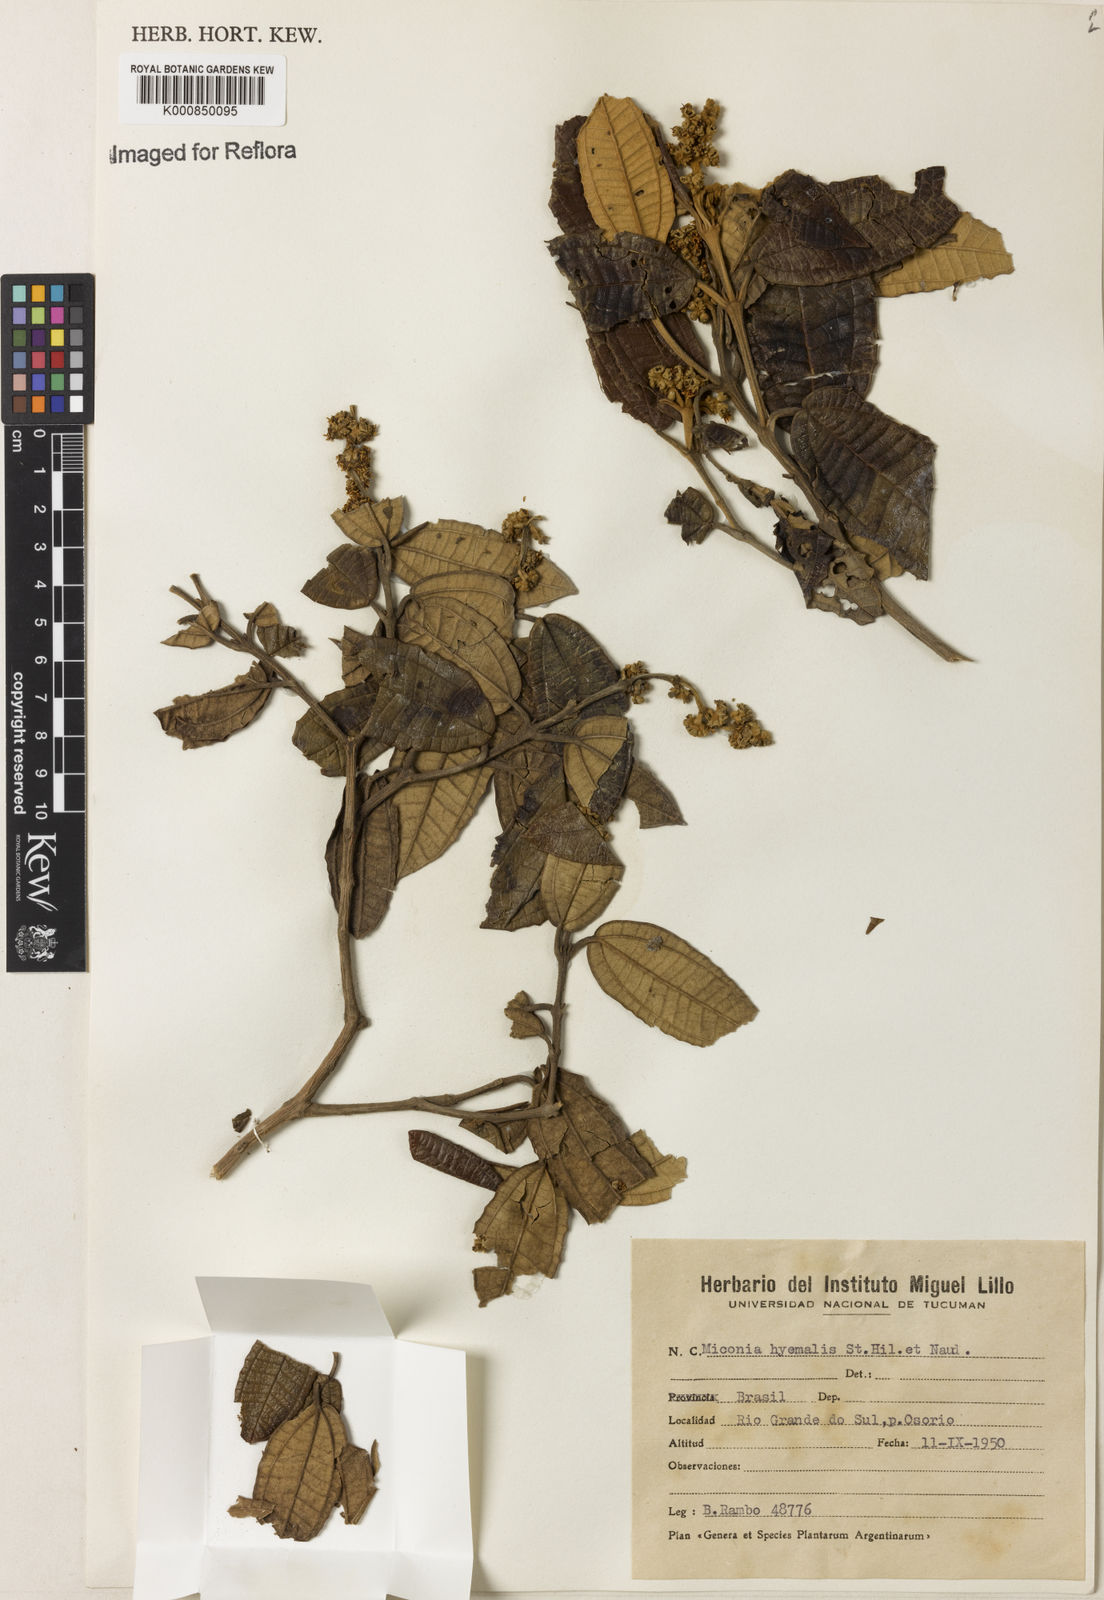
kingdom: Plantae
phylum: Tracheophyta
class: Magnoliopsida
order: Myrtales
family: Melastomataceae
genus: Miconia
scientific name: Miconia hyemalis
